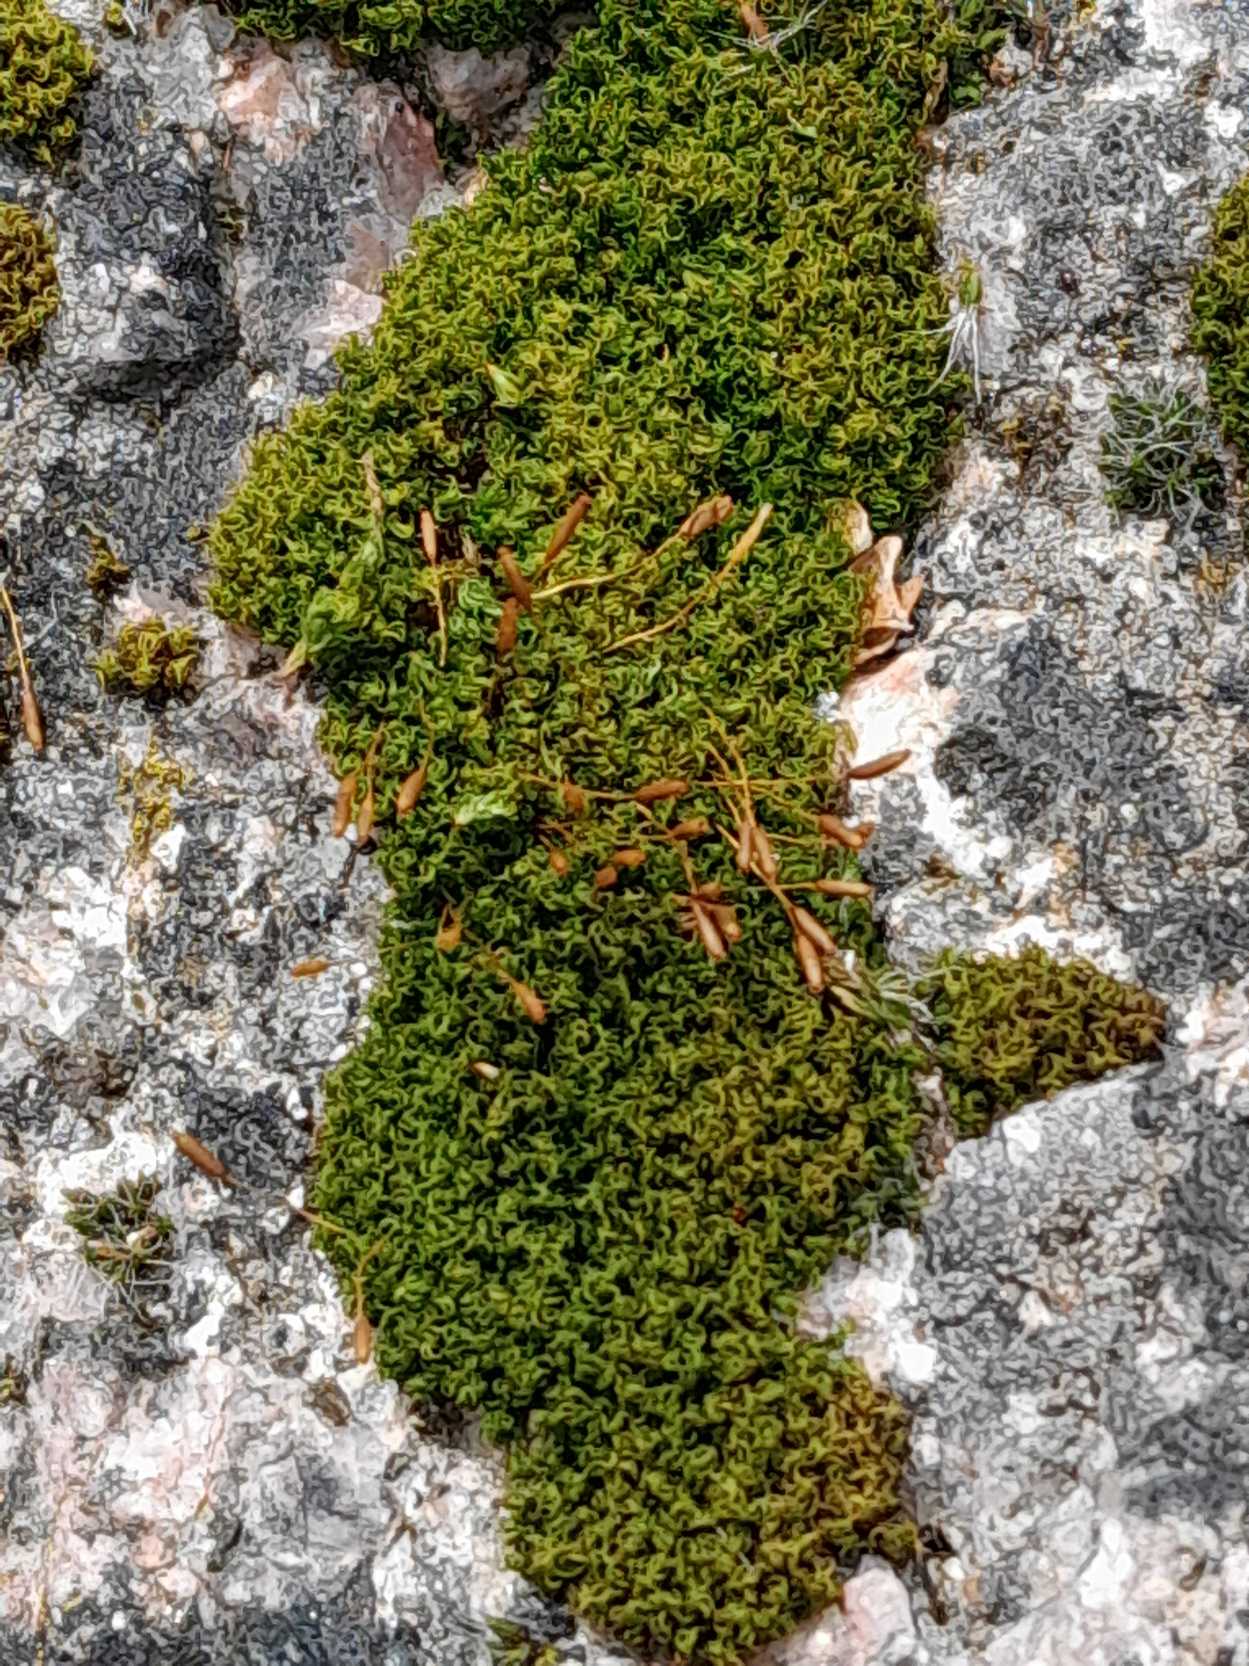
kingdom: Plantae
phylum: Bryophyta
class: Bryopsida
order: Dicranales
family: Rhabdoweisiaceae
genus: Dicranoweisia
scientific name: Dicranoweisia cirrata
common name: Almindelig krøltuemos
